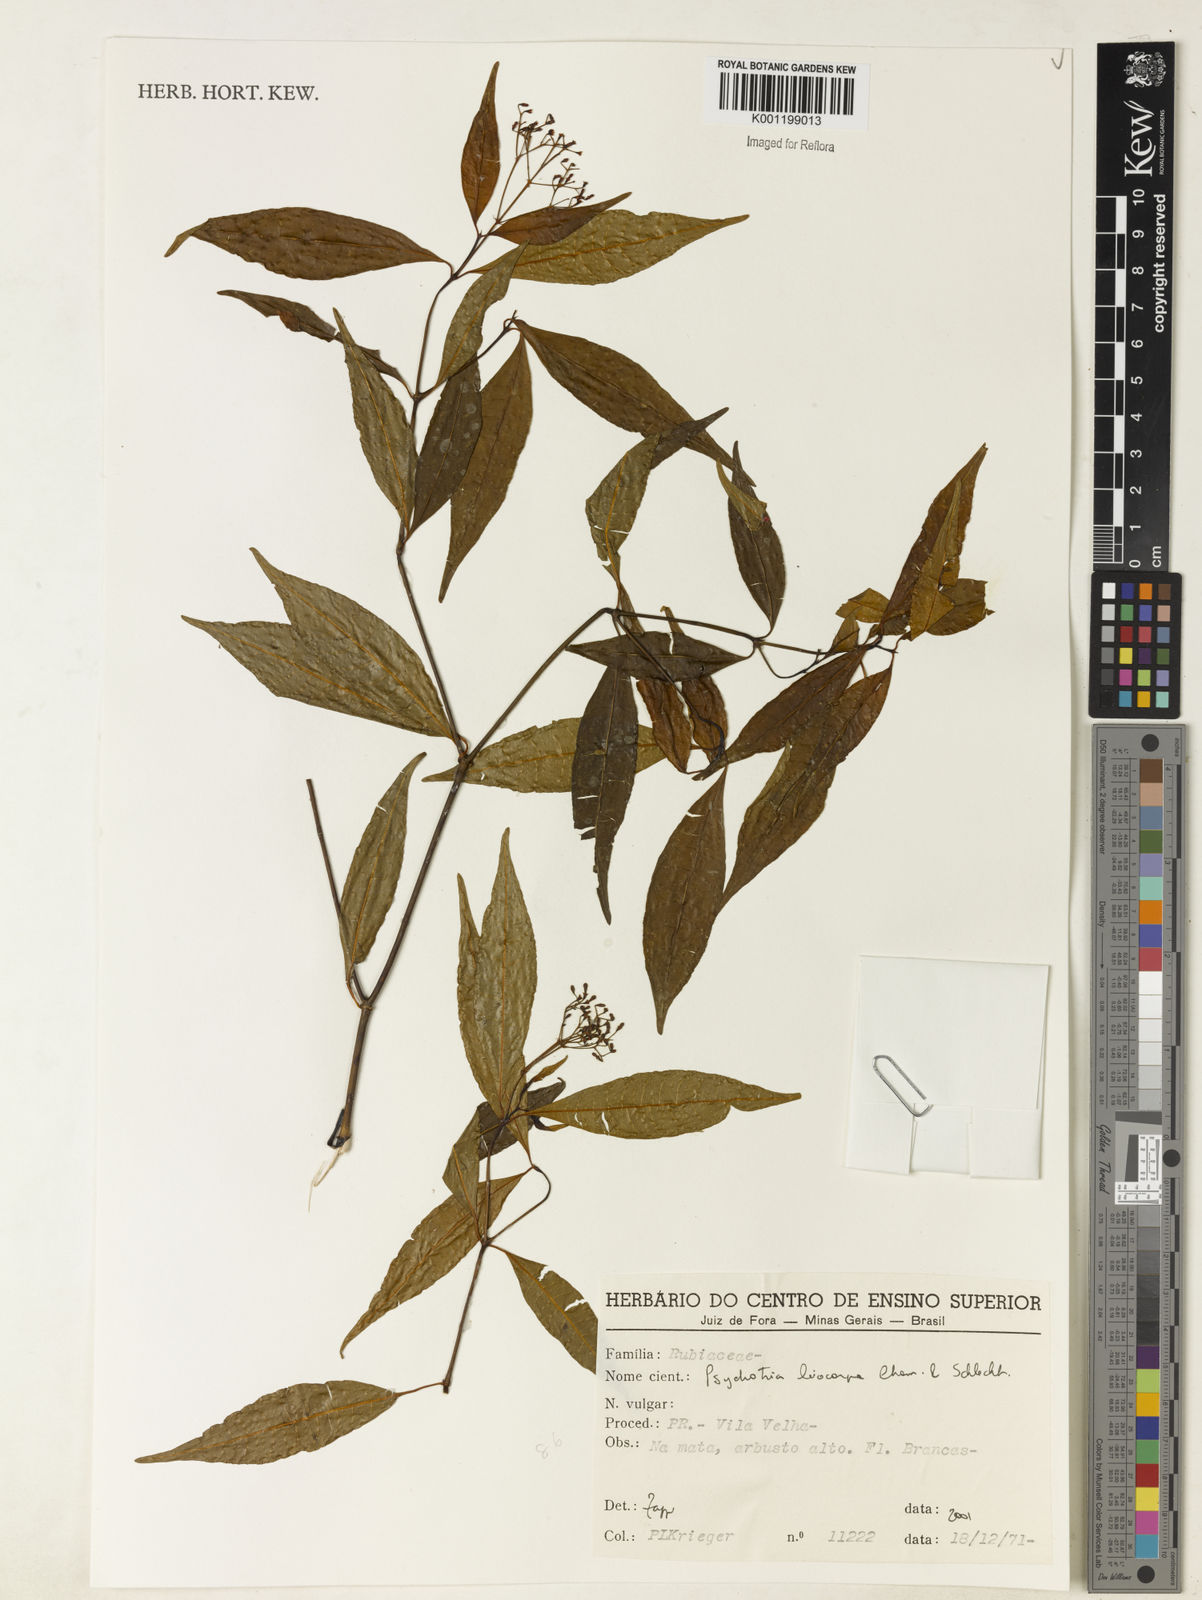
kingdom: Plantae
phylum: Tracheophyta
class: Magnoliopsida
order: Gentianales
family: Rubiaceae
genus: Psychotria
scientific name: Psychotria leiocarpa
